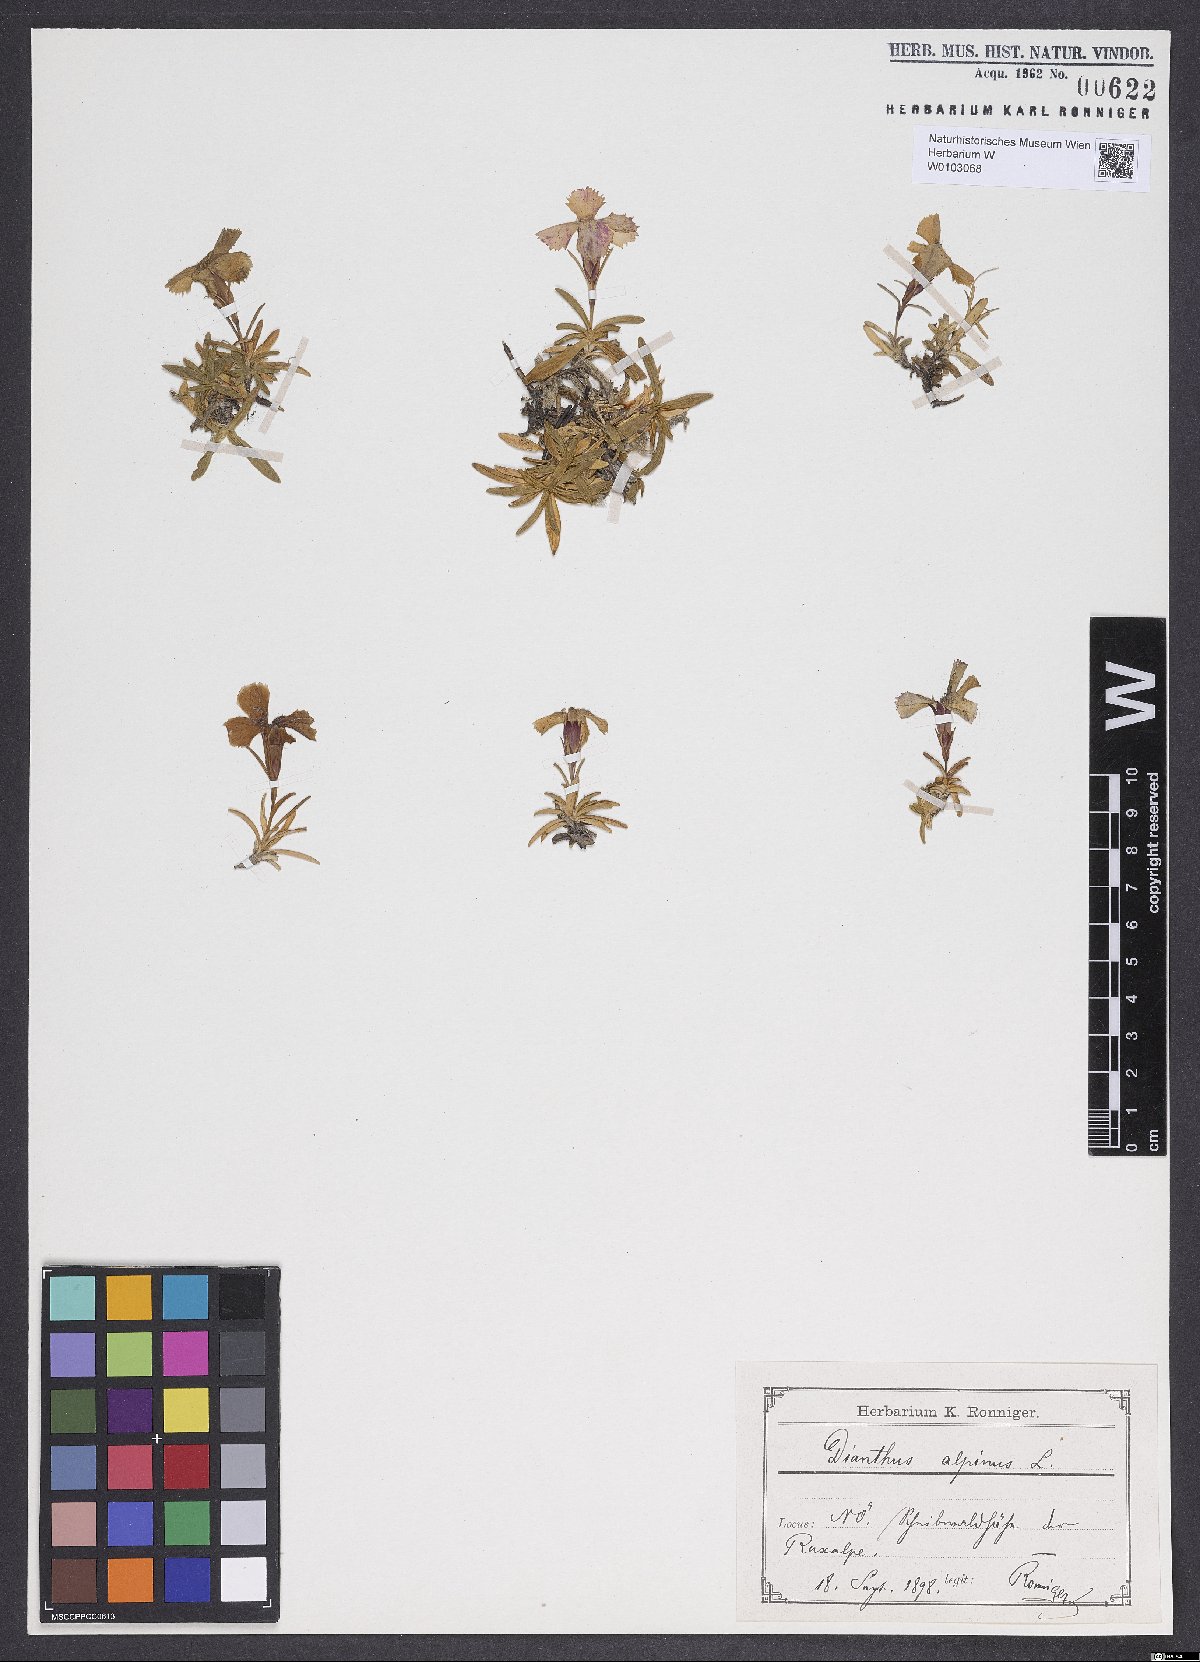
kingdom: Plantae
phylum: Tracheophyta
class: Magnoliopsida
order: Caryophyllales
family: Caryophyllaceae
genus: Dianthus
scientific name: Dianthus alpinus
